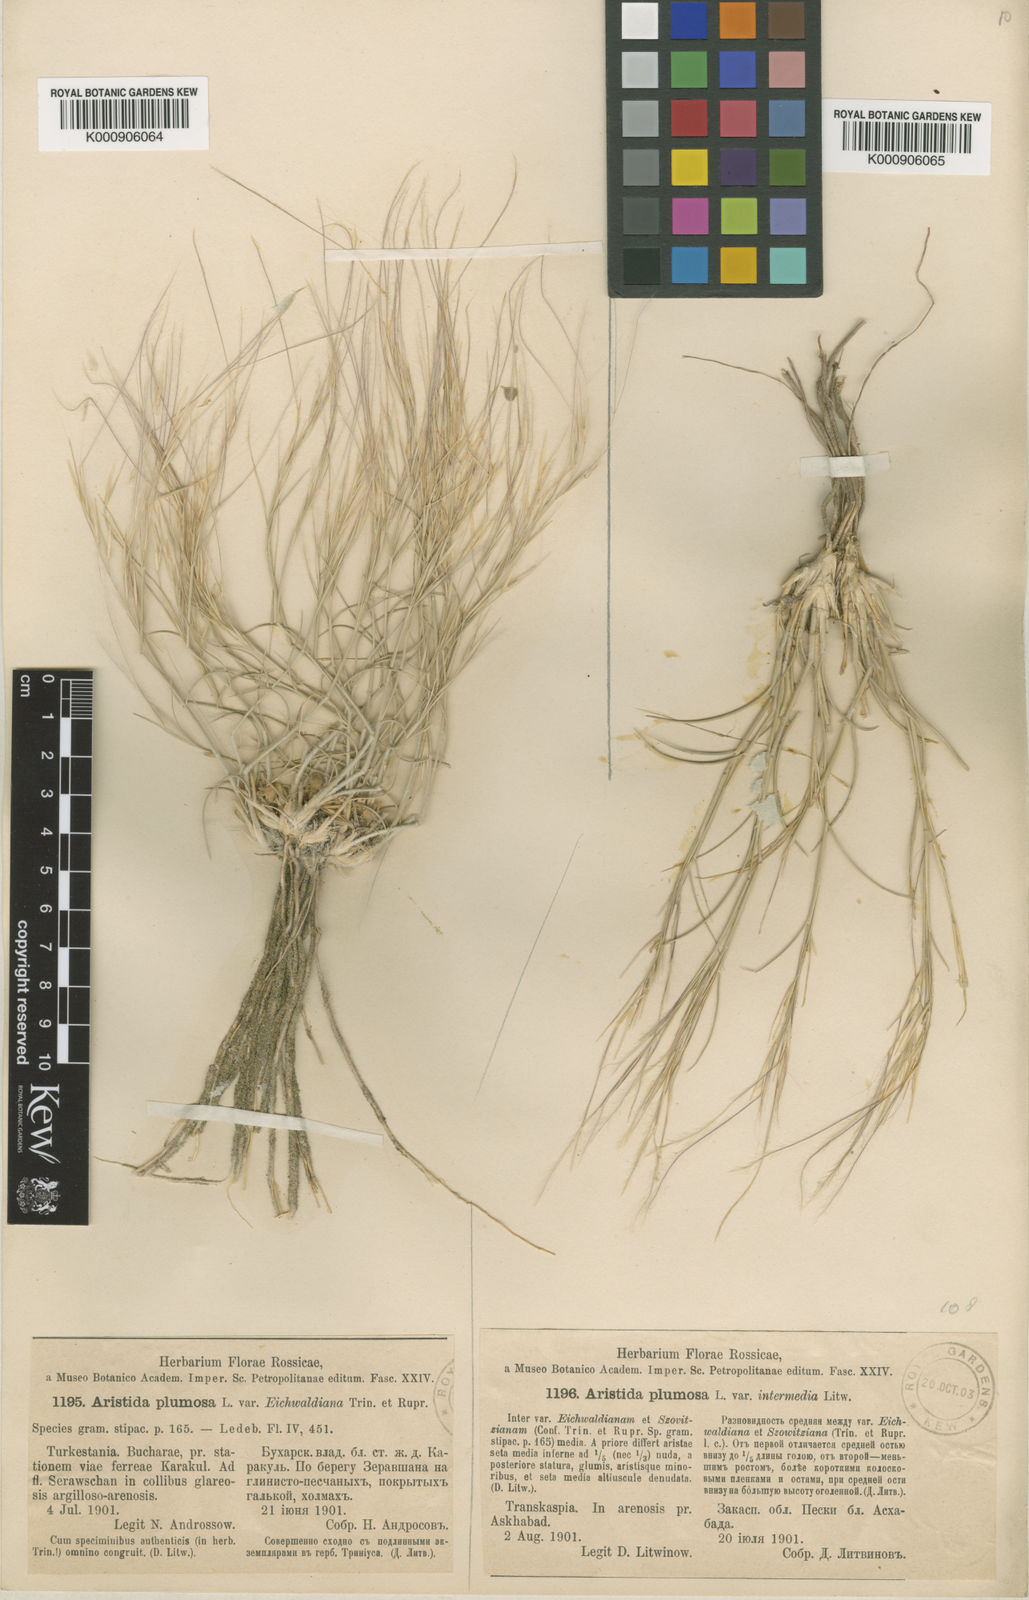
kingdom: Plantae
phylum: Tracheophyta
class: Liliopsida
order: Poales
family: Poaceae
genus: Stipagrostis
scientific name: Stipagrostis plumosa
